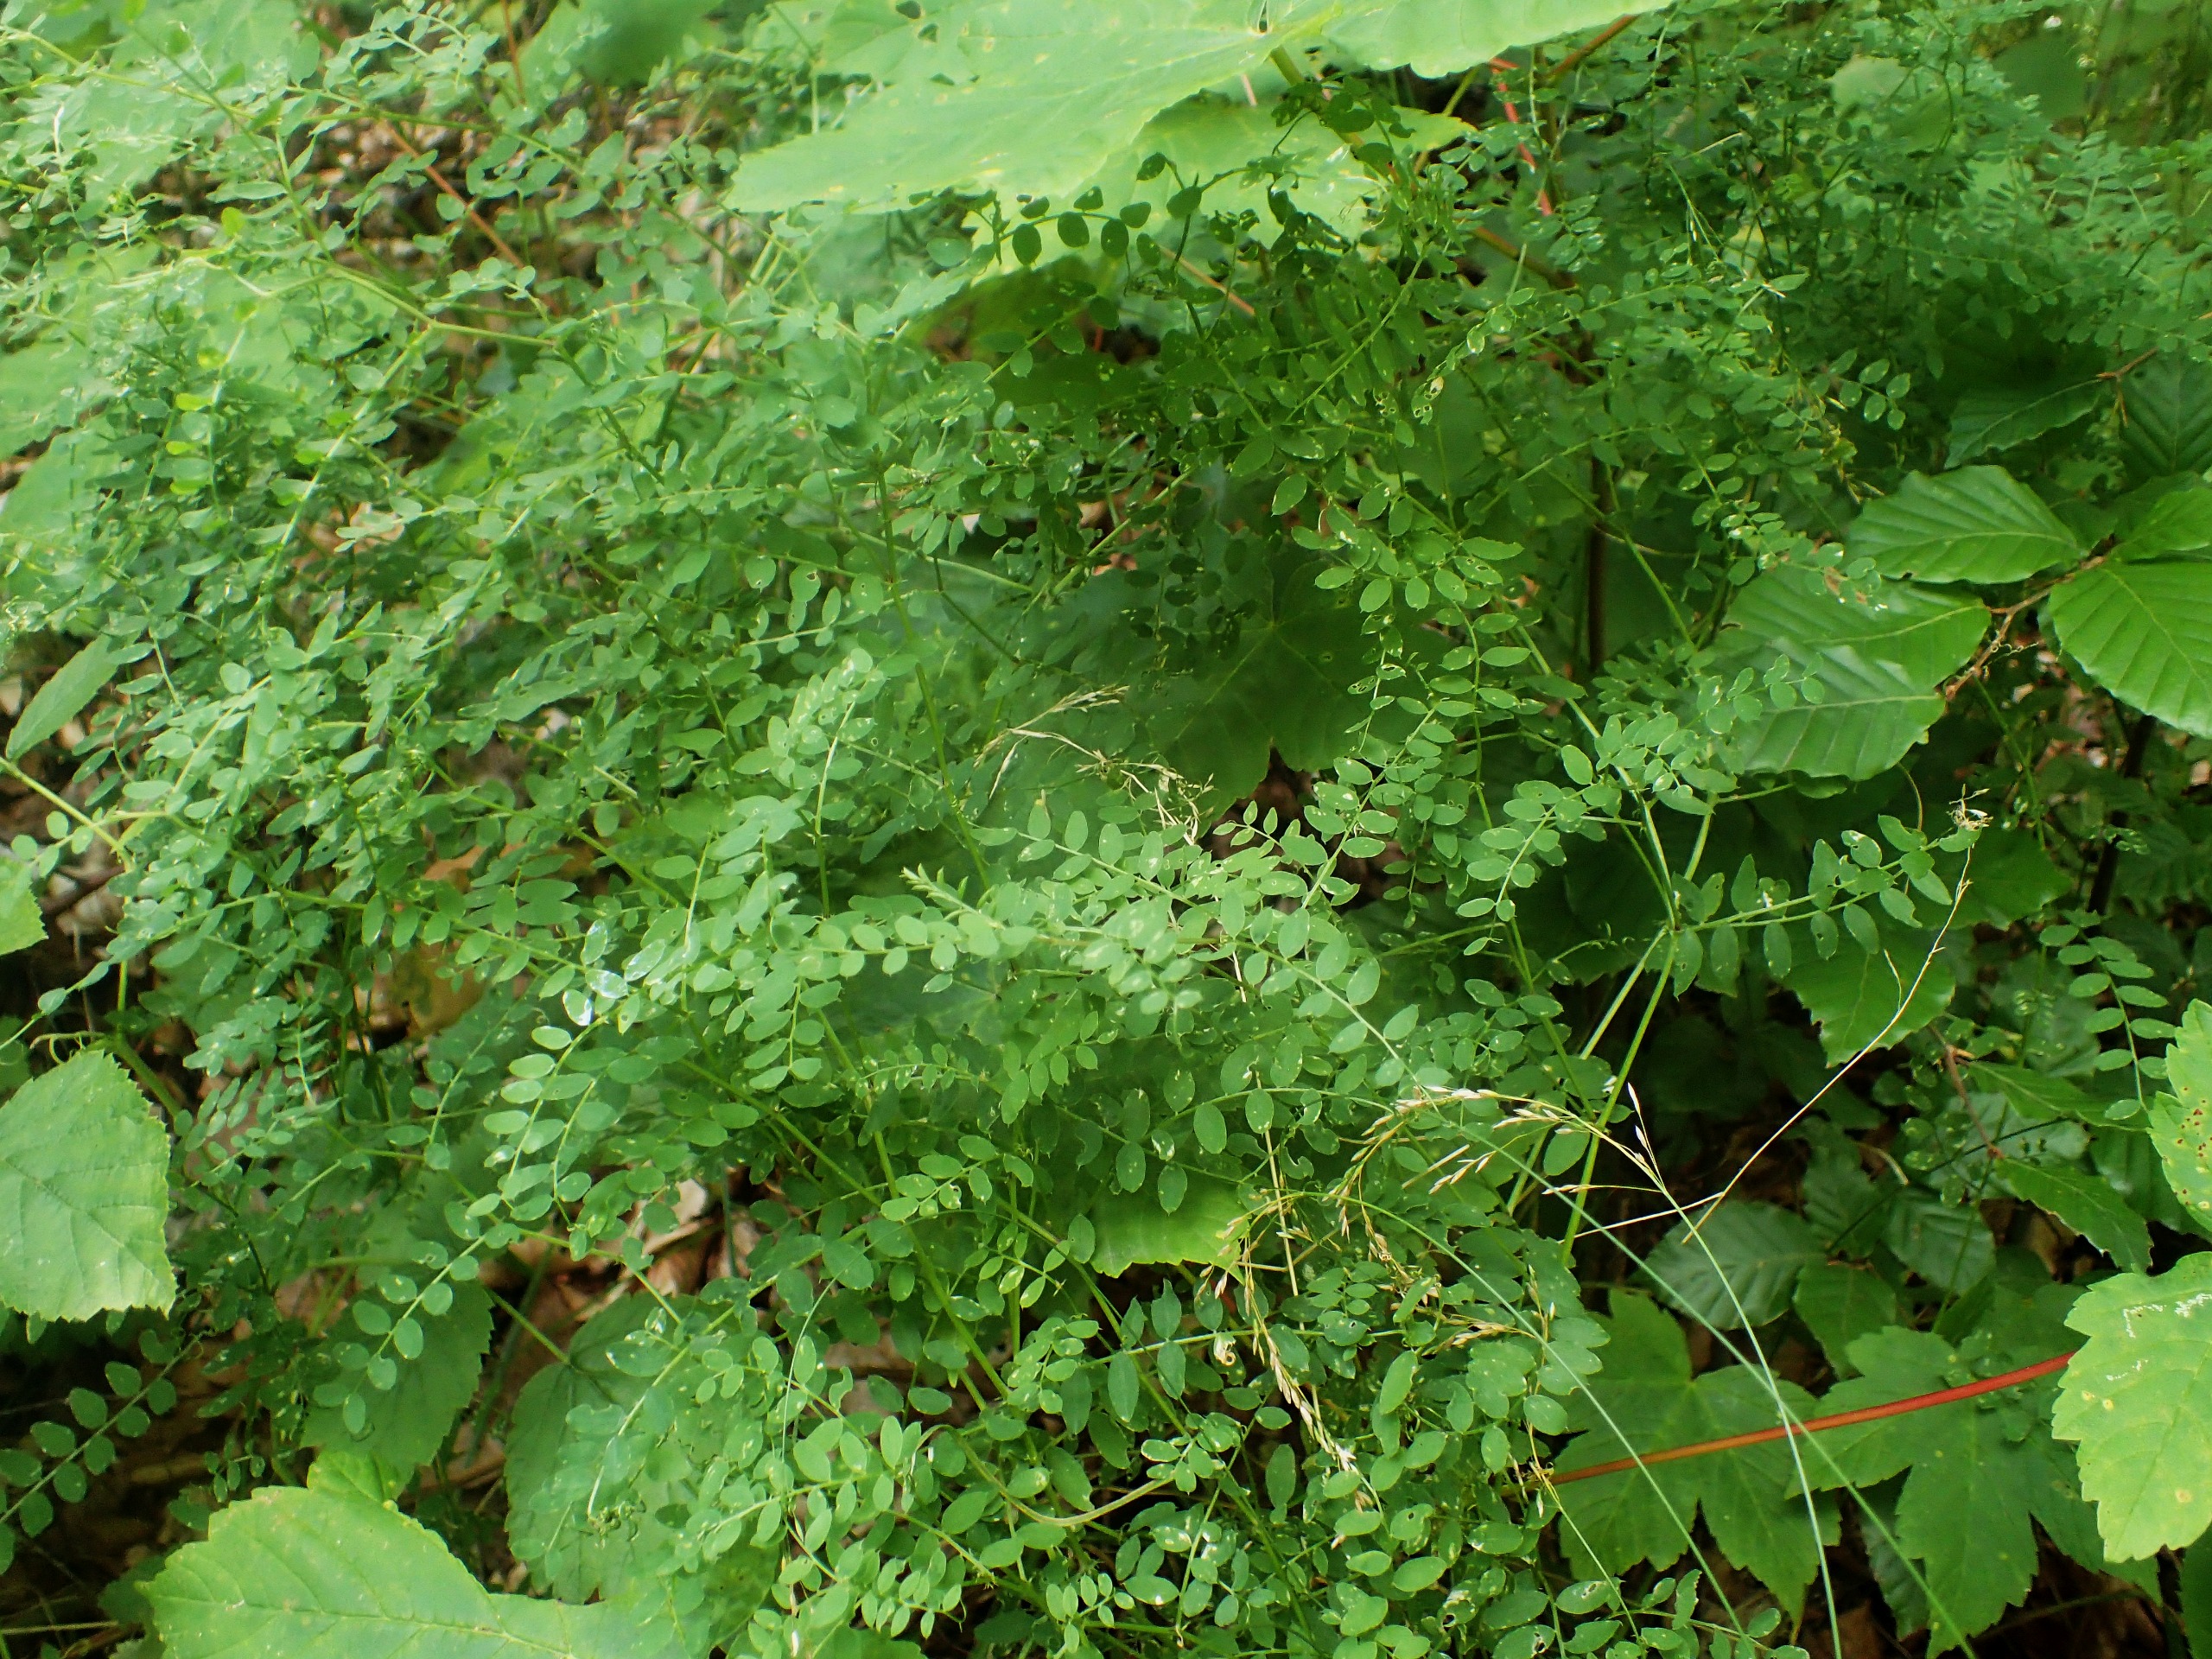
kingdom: Plantae
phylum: Tracheophyta
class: Magnoliopsida
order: Fabales
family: Fabaceae
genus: Vicia
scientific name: Vicia sylvatica
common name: Skov-vikke
